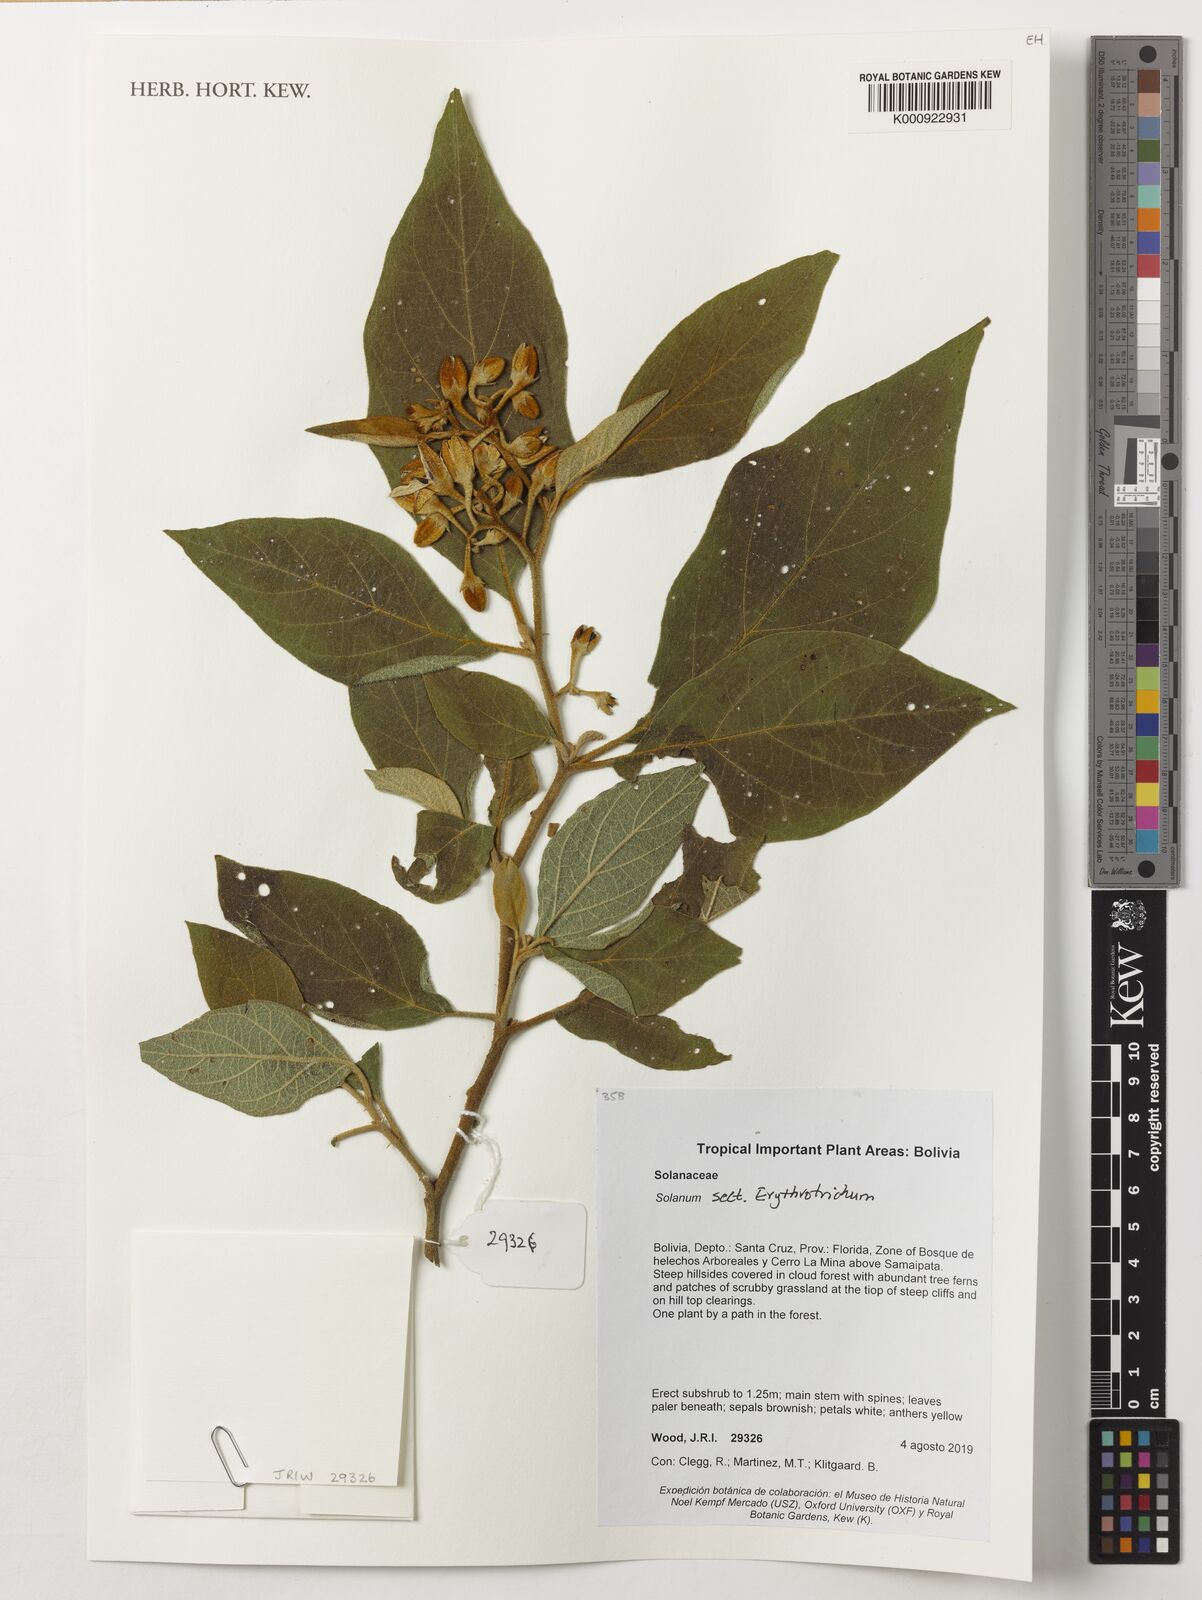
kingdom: Plantae
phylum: Tracheophyta
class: Magnoliopsida
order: Solanales
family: Solanaceae
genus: Solanum
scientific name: Solanum erythrotrichum
